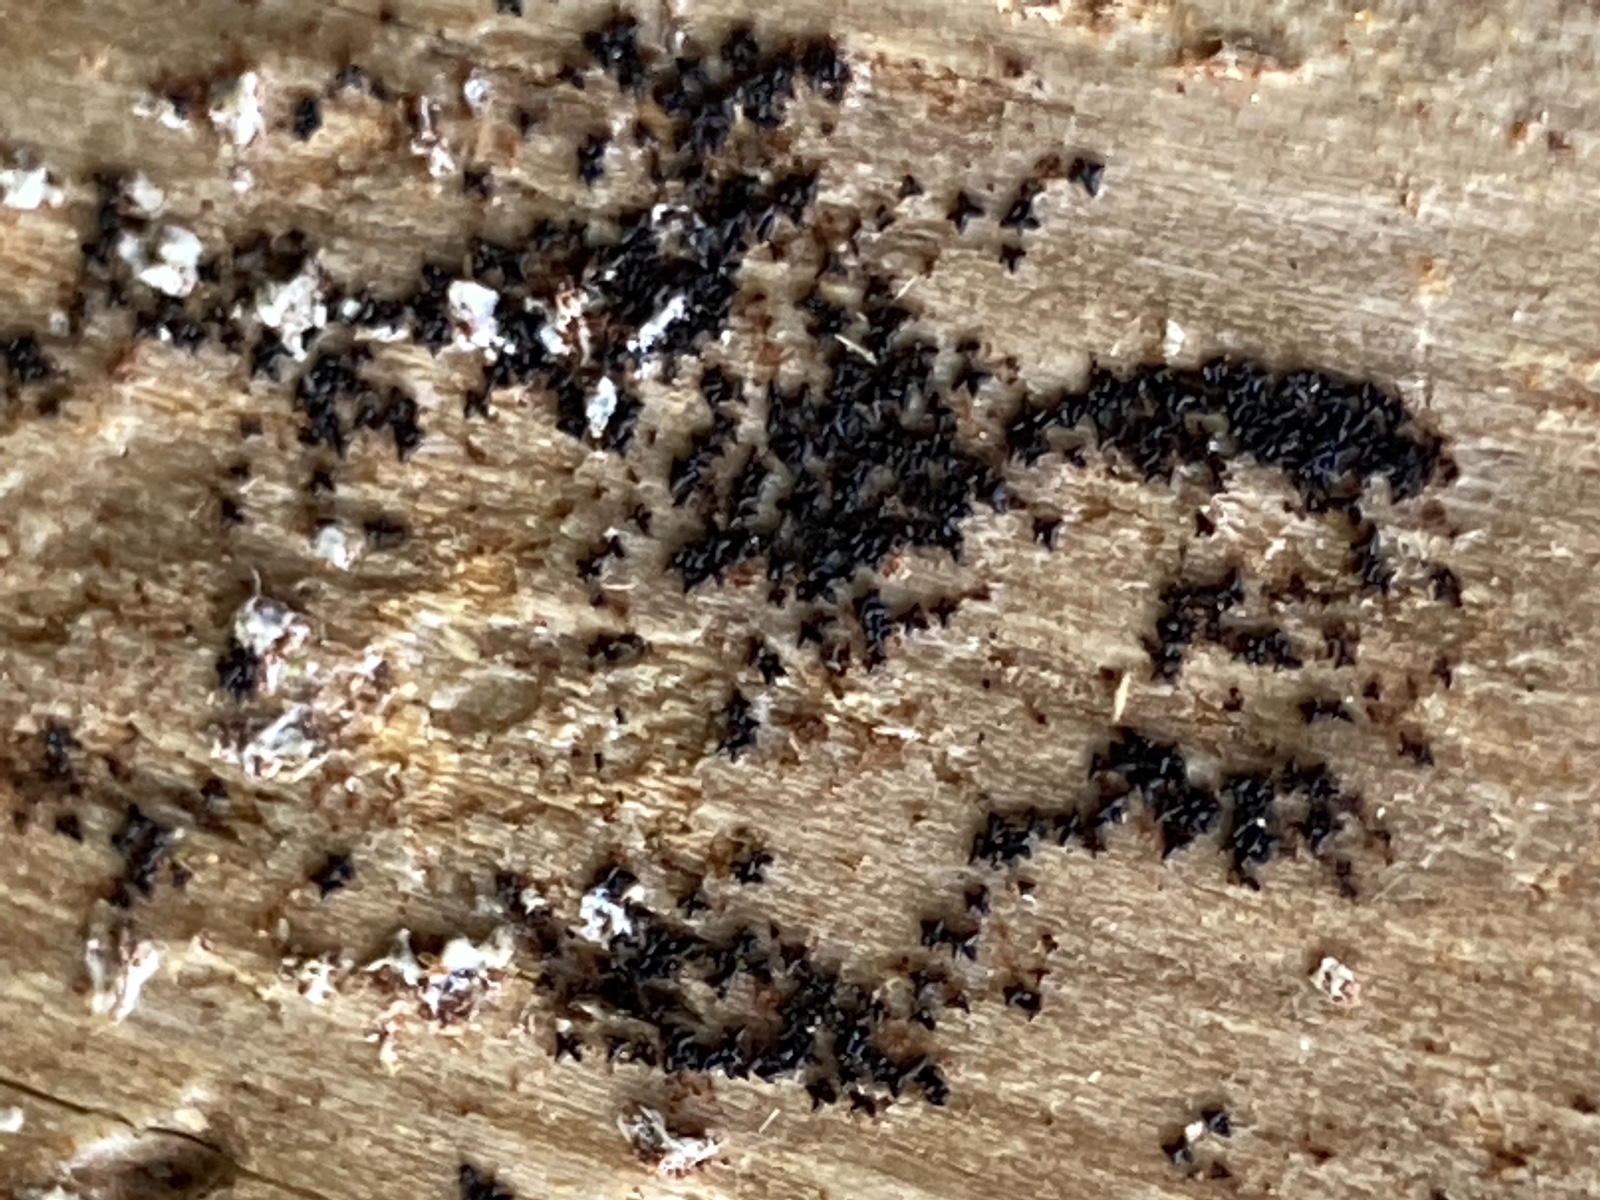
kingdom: Fungi
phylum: Ascomycota
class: Dothideomycetes
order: Mytilinidiales
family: Mytilinidiaceae
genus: Actidium
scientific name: Actidium hysterioides
